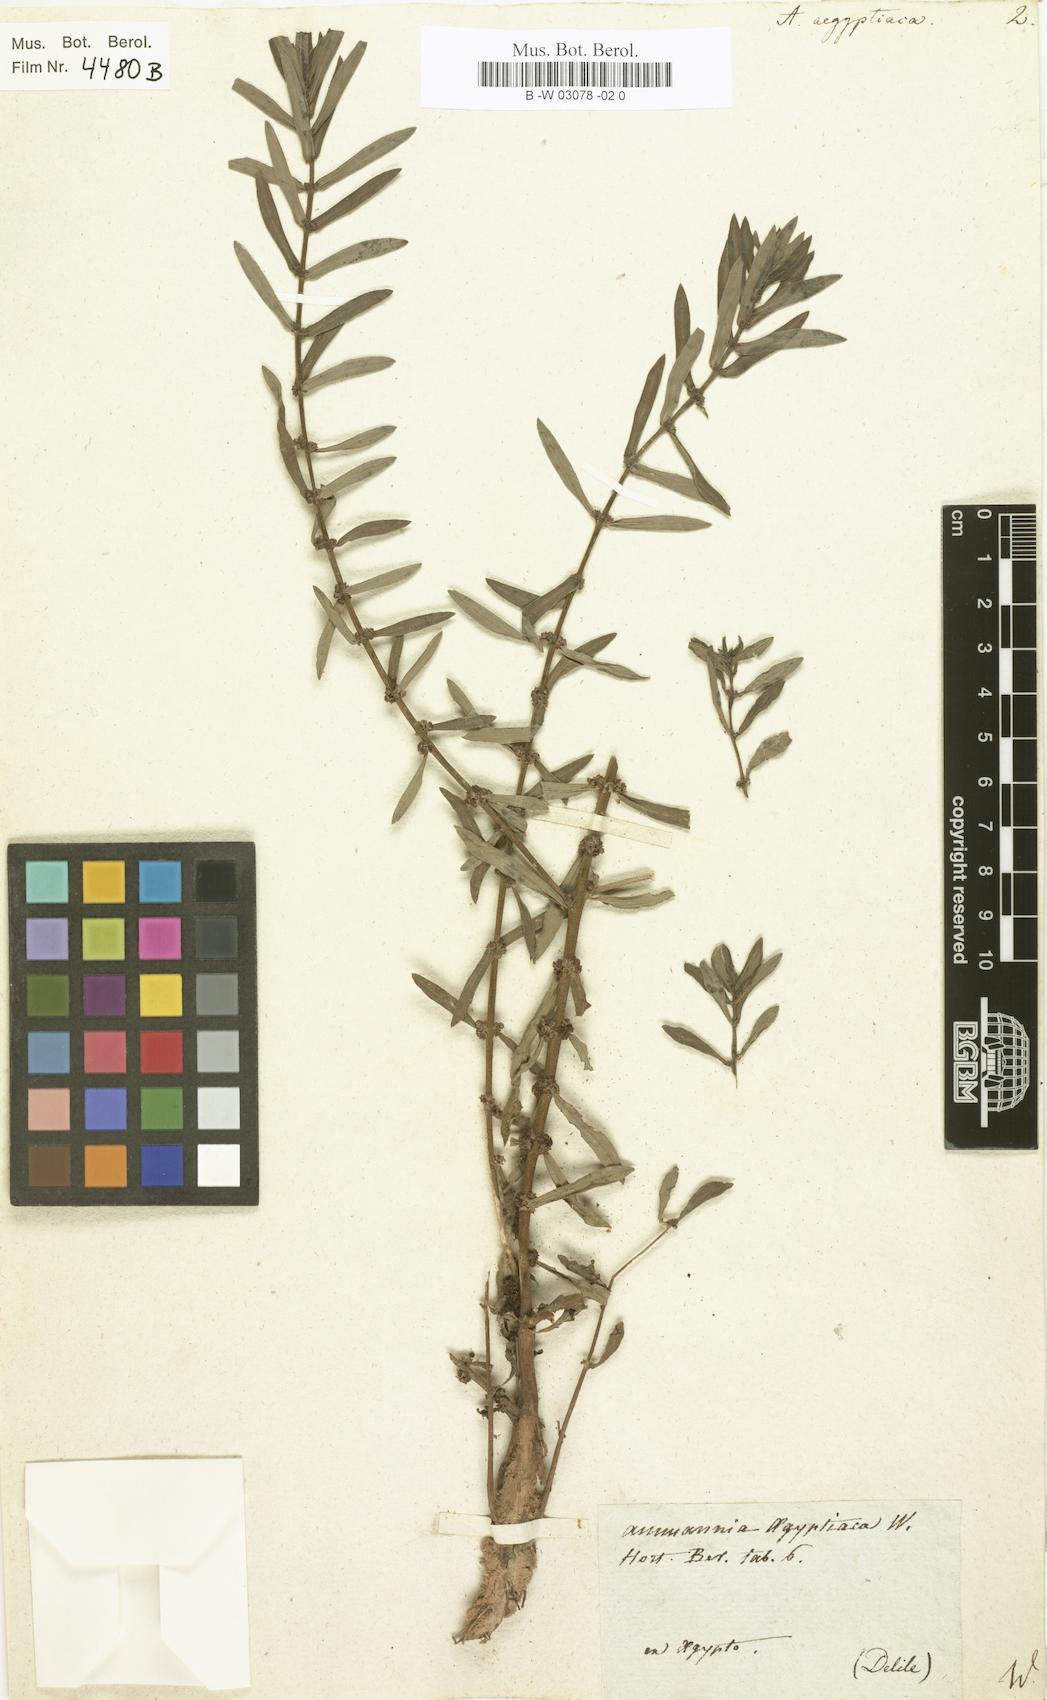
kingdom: Plantae
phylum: Tracheophyta
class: Magnoliopsida
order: Myrtales
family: Lythraceae
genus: Ammannia
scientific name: Ammannia aegpytiaca
